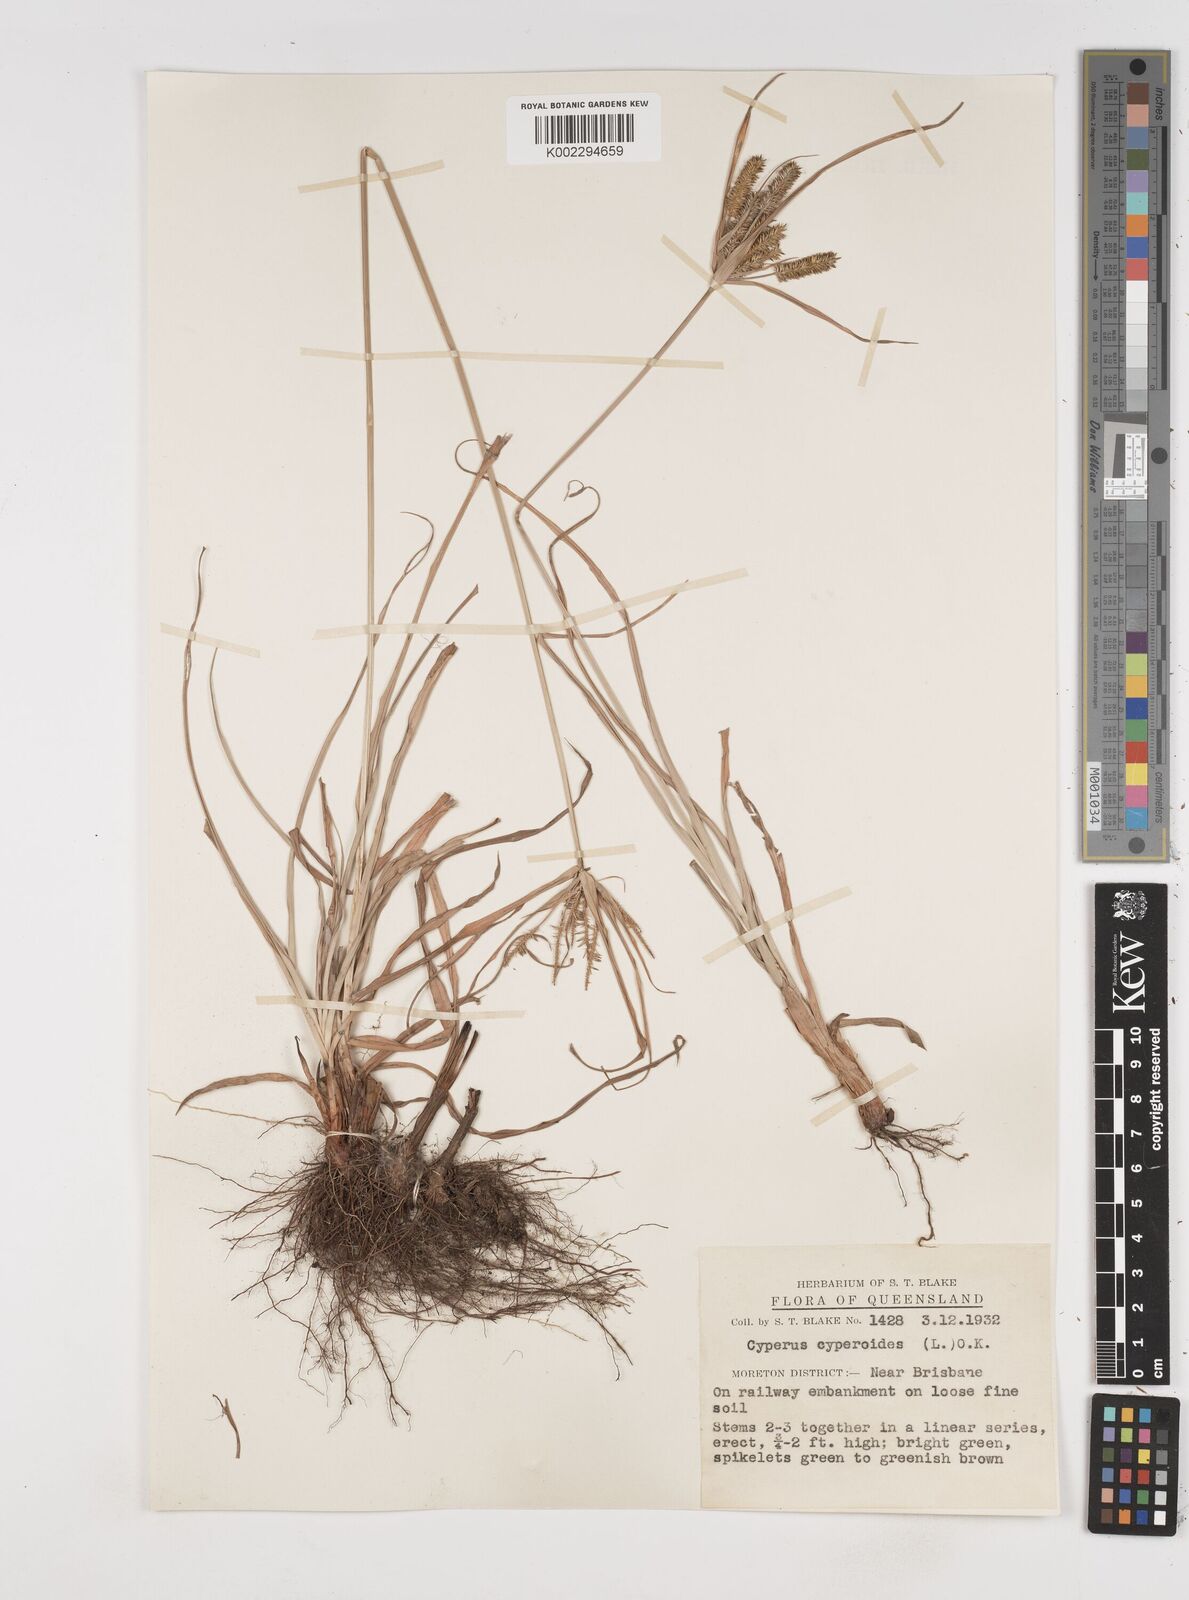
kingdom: Plantae
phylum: Tracheophyta
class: Liliopsida
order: Poales
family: Cyperaceae
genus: Cyperus
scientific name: Cyperus cyperoides
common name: Pacific island flat sedge
